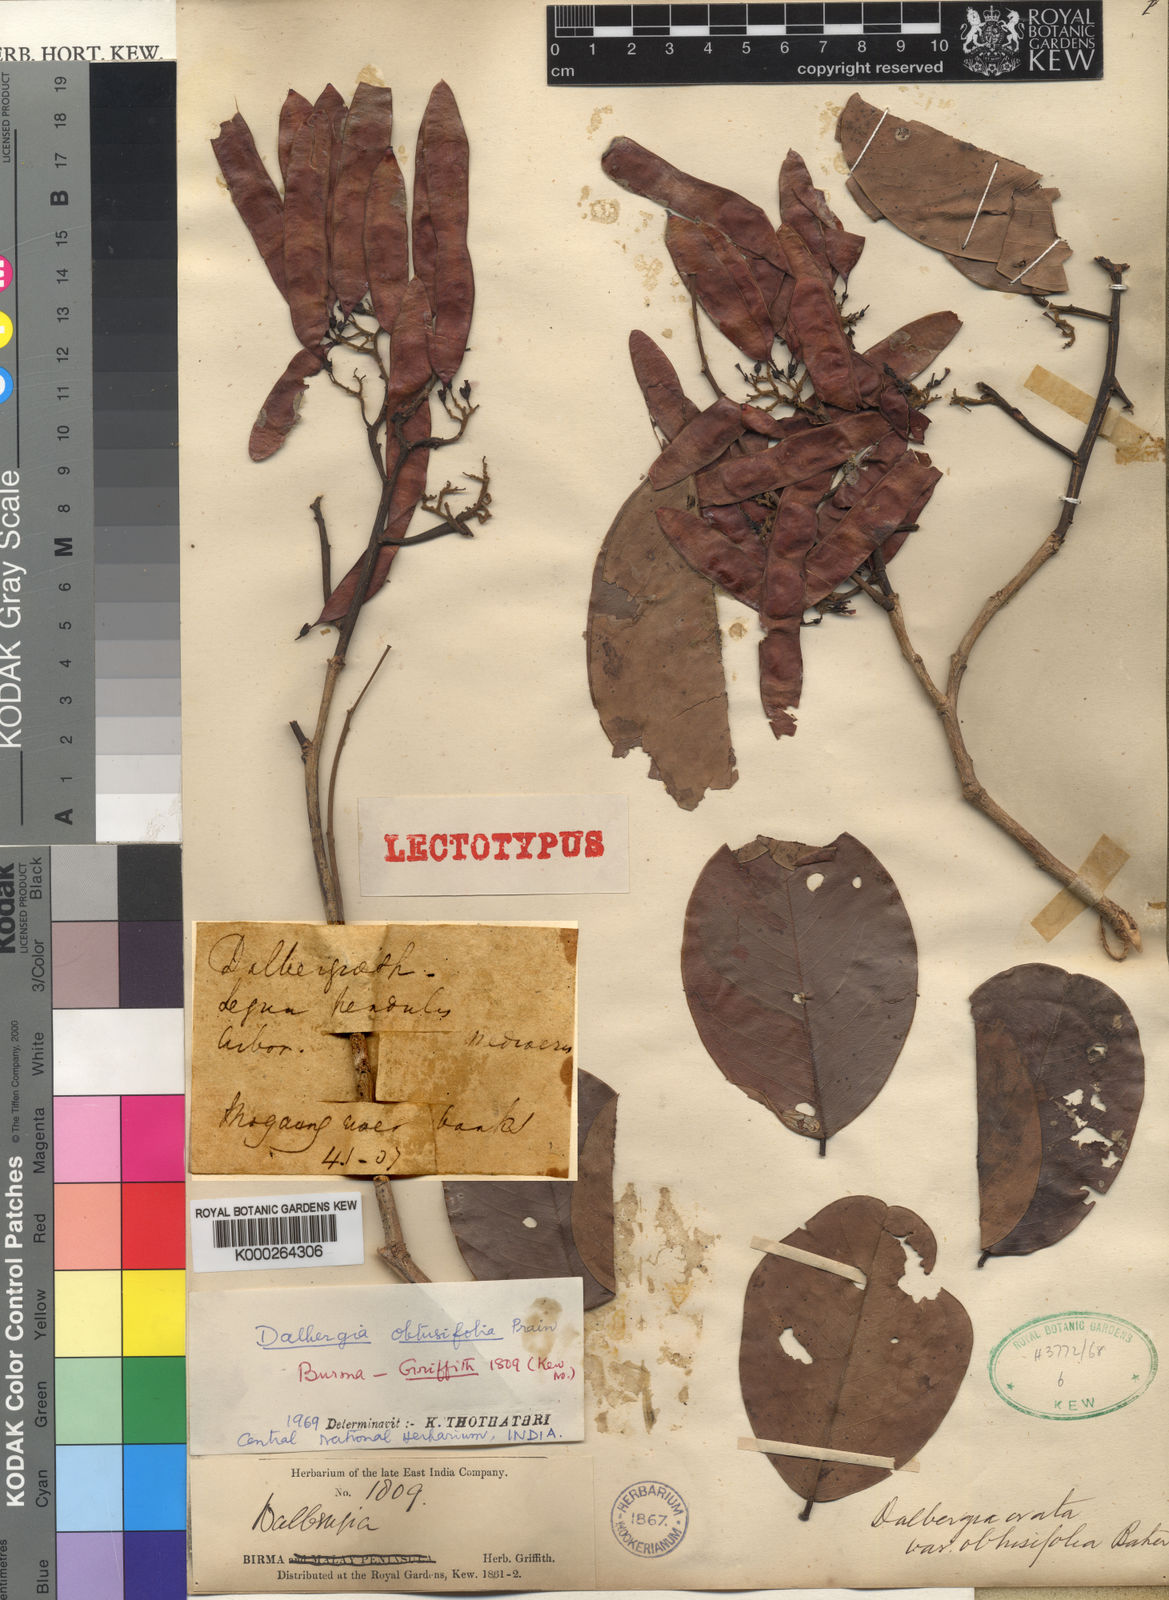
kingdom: Plantae
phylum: Tracheophyta
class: Magnoliopsida
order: Fabales
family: Fabaceae
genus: Dalbergia
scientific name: Dalbergia ovata
